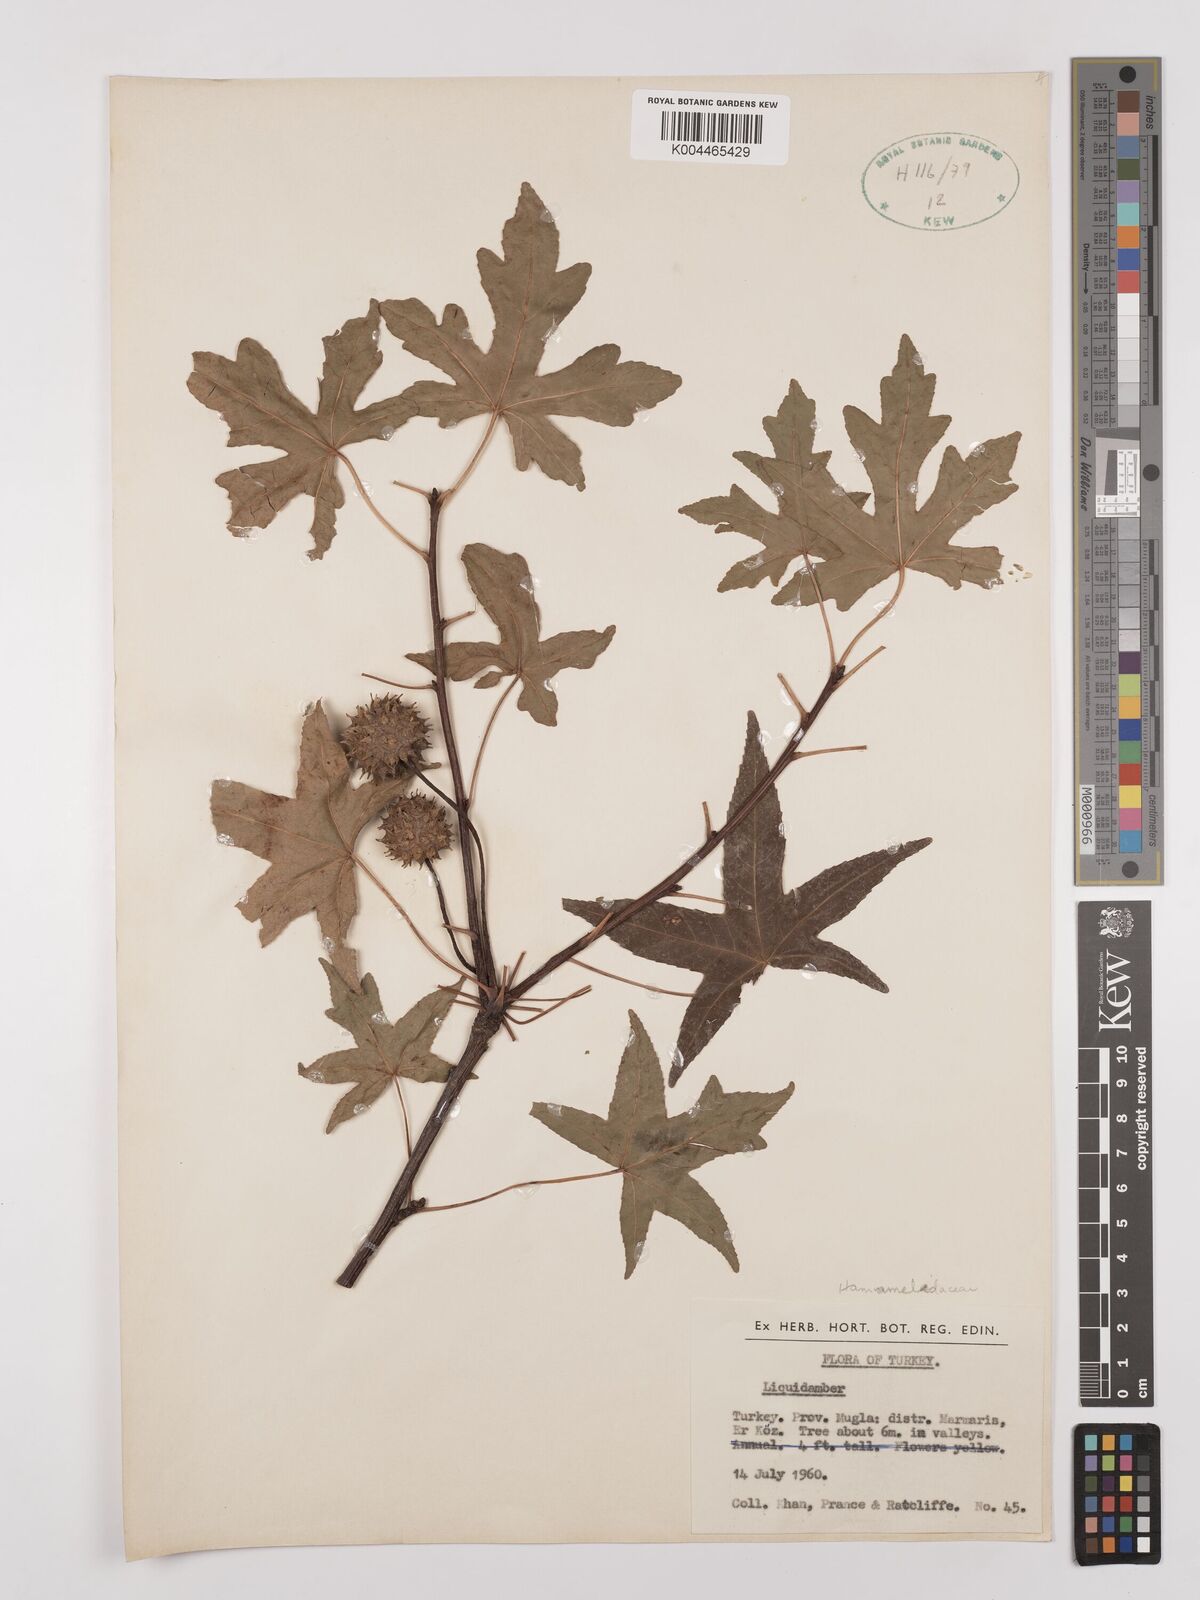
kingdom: Plantae
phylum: Tracheophyta
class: Magnoliopsida
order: Saxifragales
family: Altingiaceae
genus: Liquidambar
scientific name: Liquidambar
